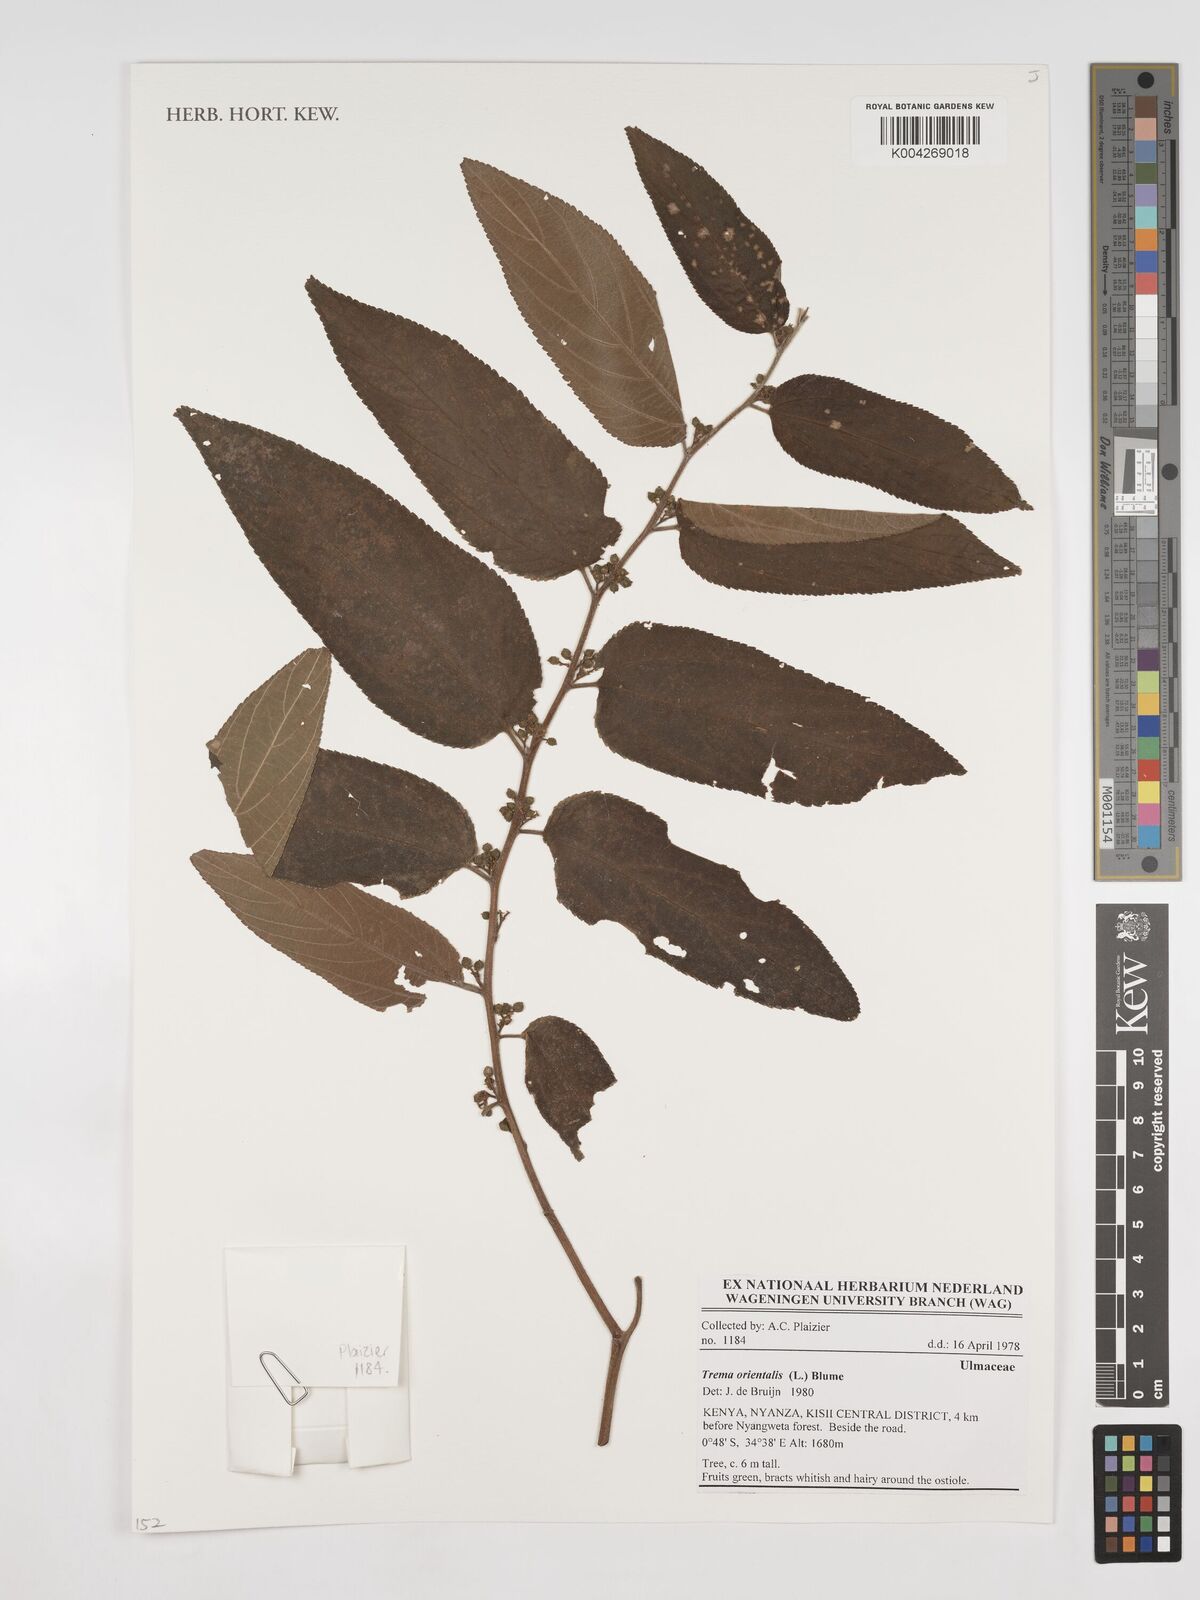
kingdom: Plantae
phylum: Tracheophyta
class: Magnoliopsida
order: Rosales
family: Cannabaceae
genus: Trema
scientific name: Trema orientale
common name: Indian charcoal tree
